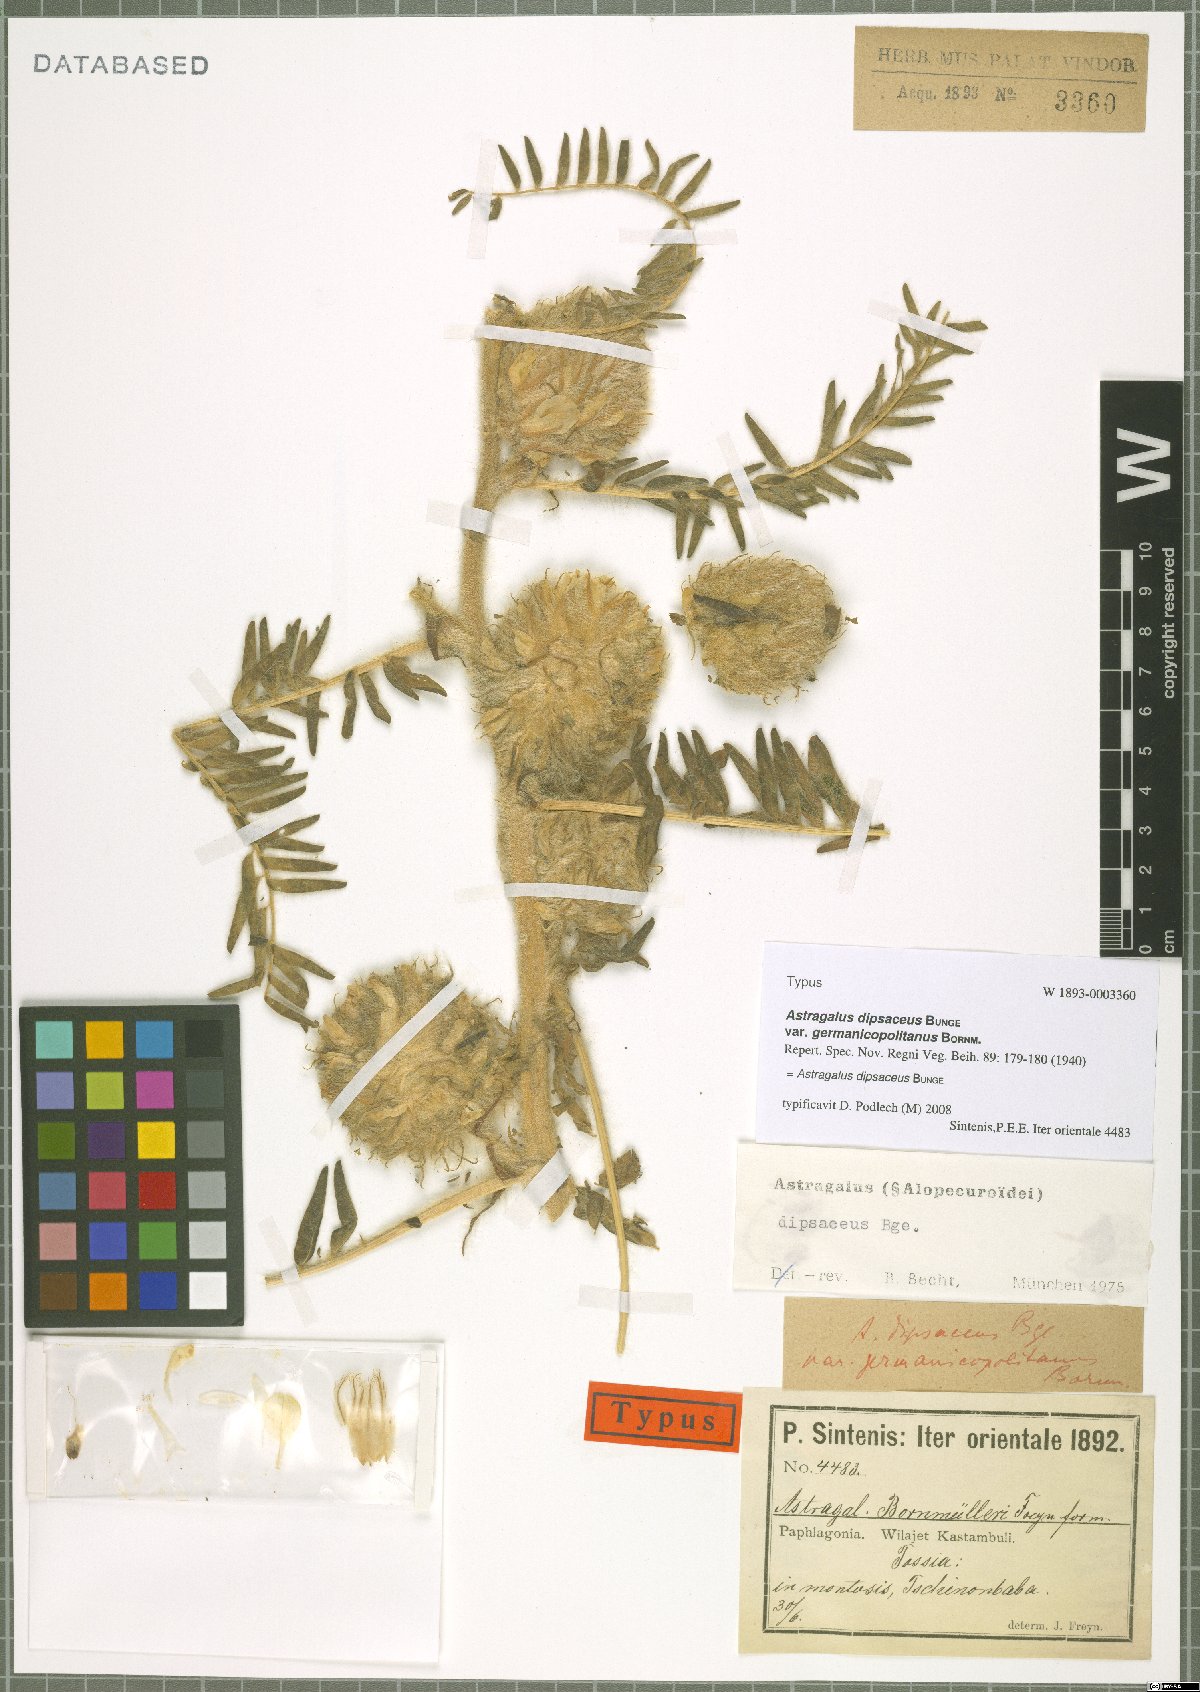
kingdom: Plantae
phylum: Tracheophyta
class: Magnoliopsida
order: Fabales
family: Fabaceae
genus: Astragalus
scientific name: Astragalus dipsaceus
